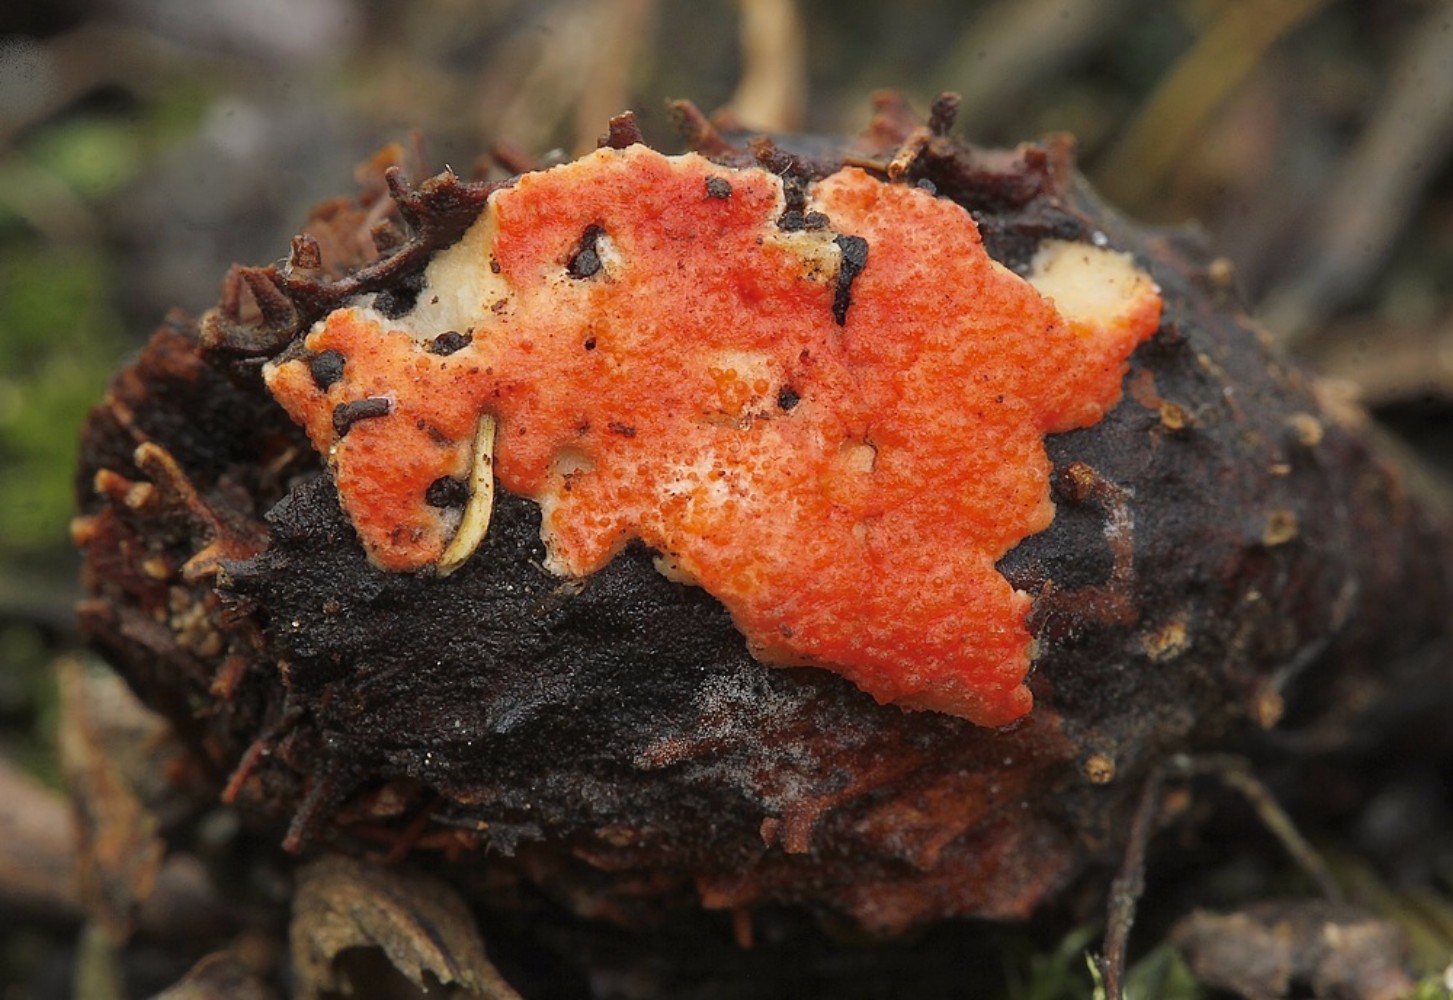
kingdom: Fungi
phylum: Ascomycota
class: Sordariomycetes
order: Hypocreales
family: Hypocreaceae
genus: Hypomyces
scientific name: Hypomyces ochraceus
